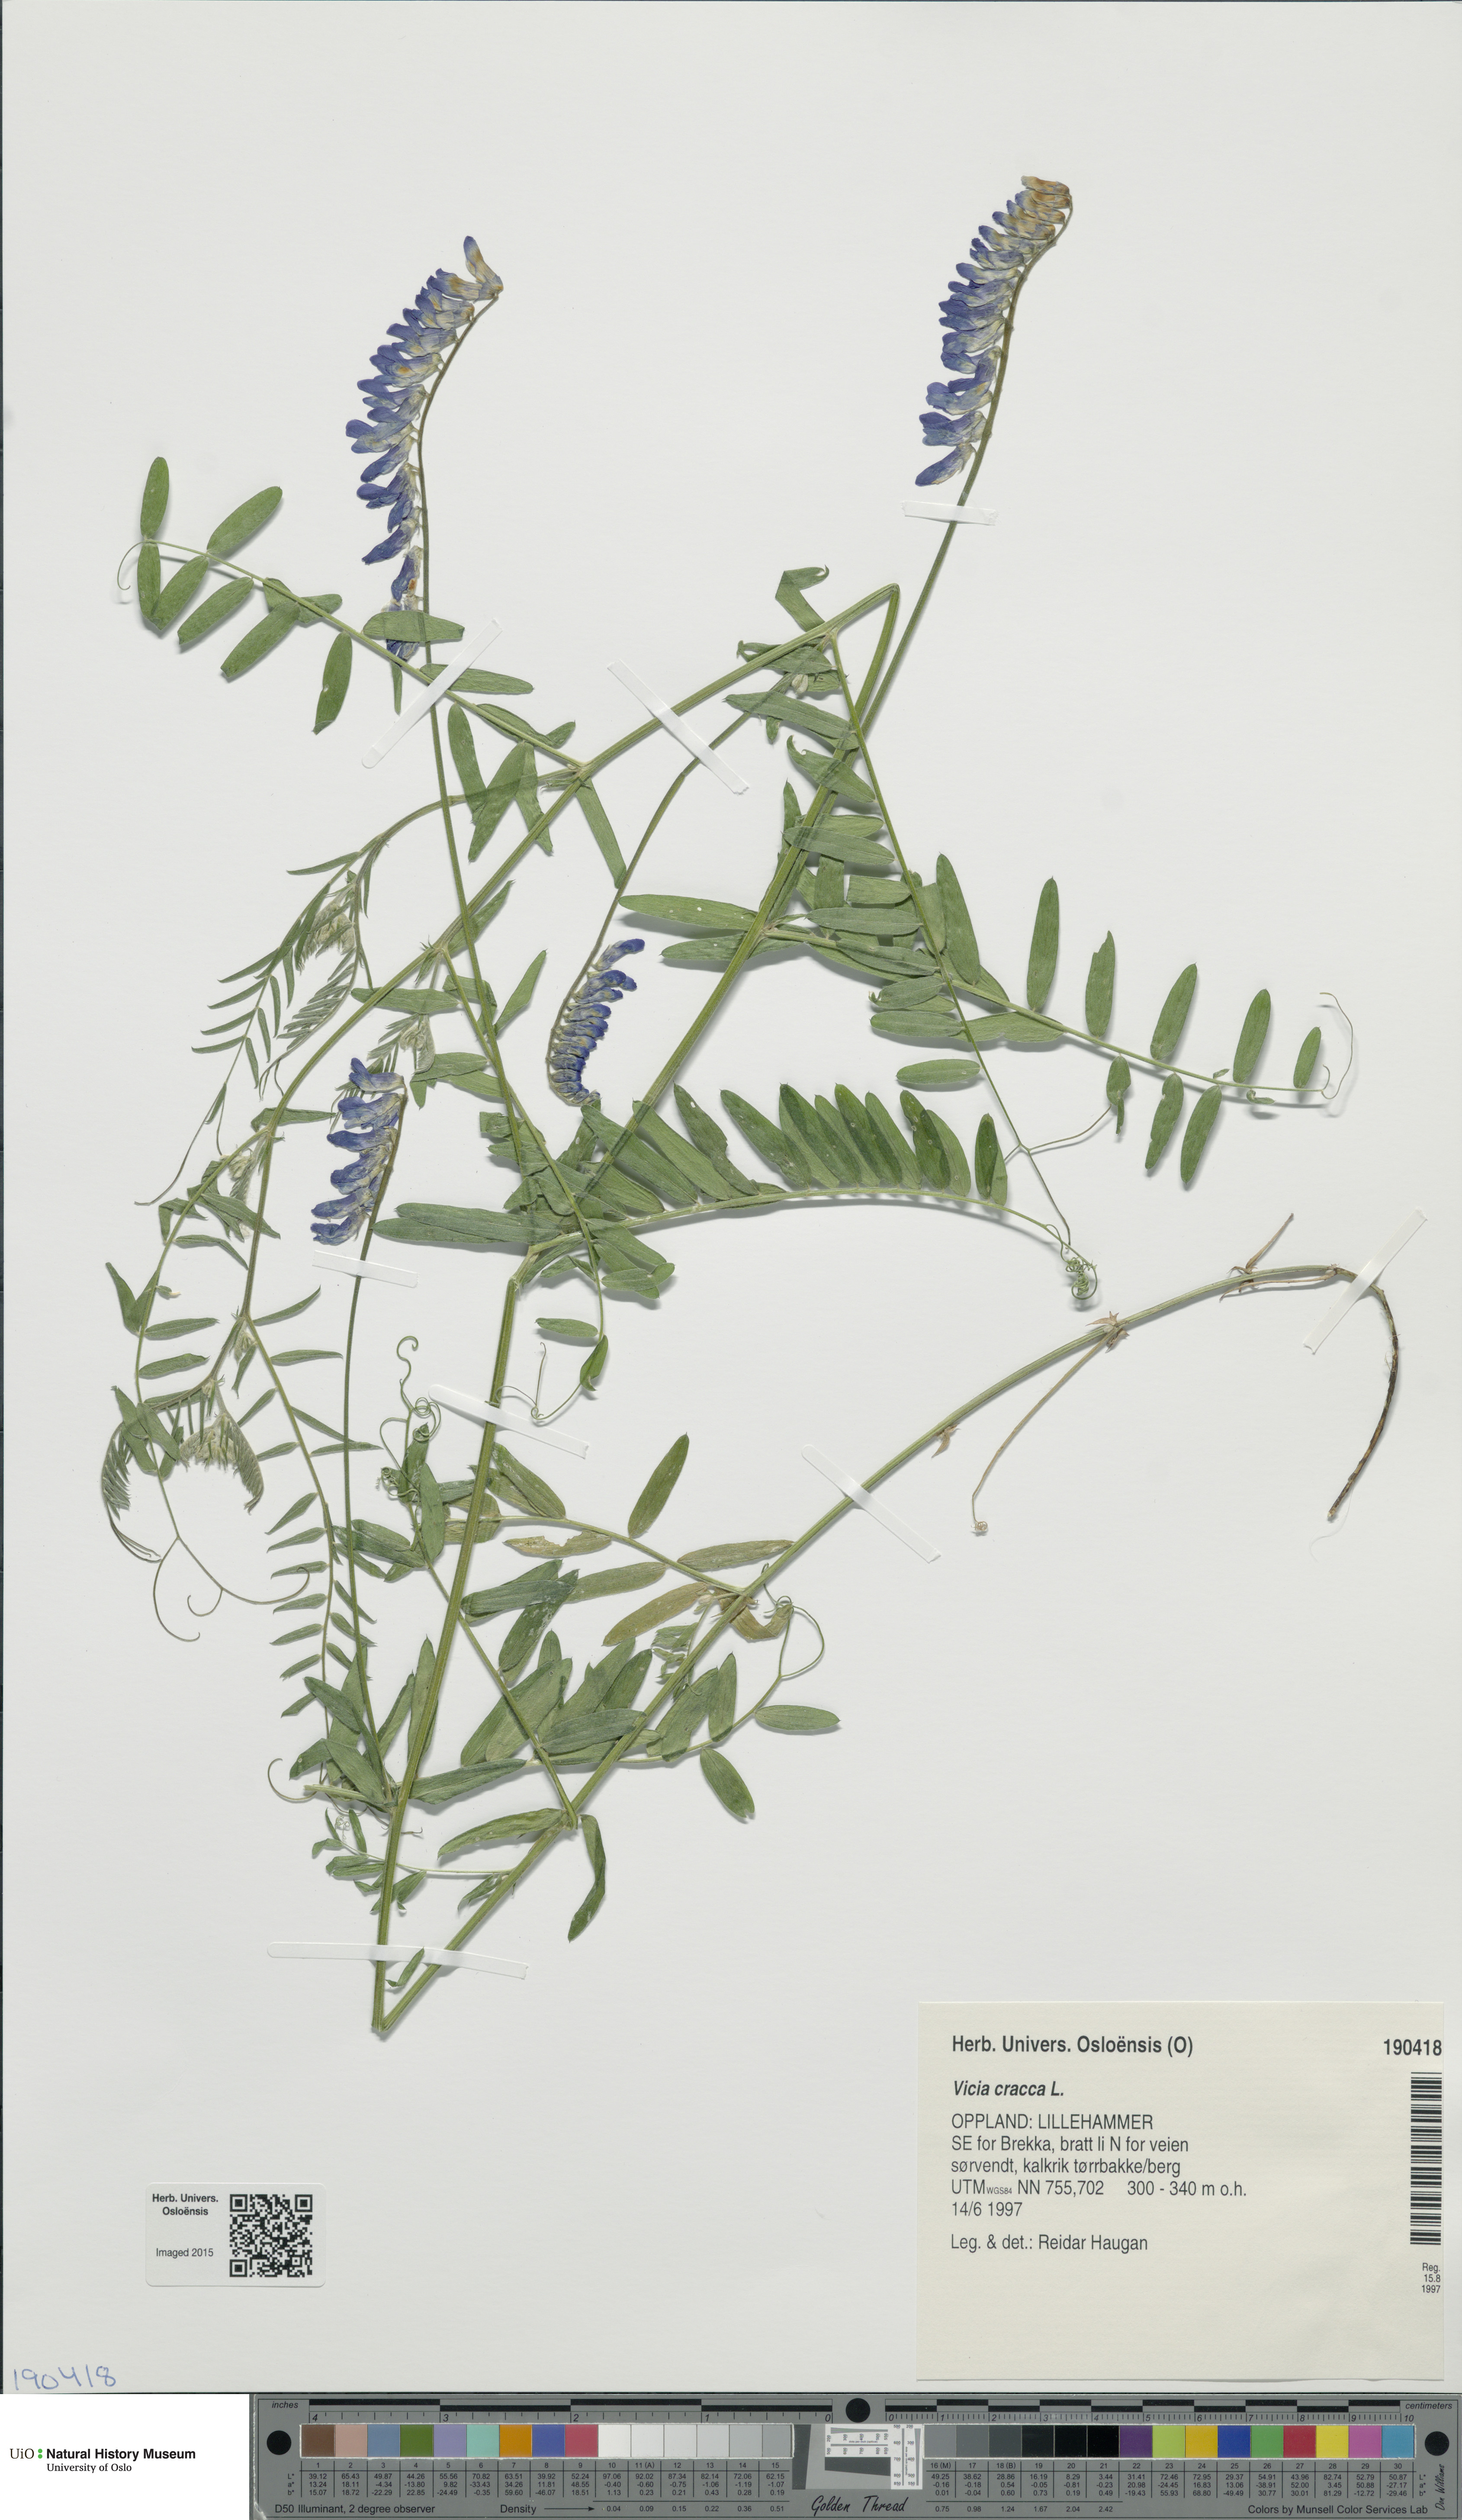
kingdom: Plantae
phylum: Tracheophyta
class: Magnoliopsida
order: Fabales
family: Fabaceae
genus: Vicia
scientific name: Vicia cracca
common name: Bird vetch
